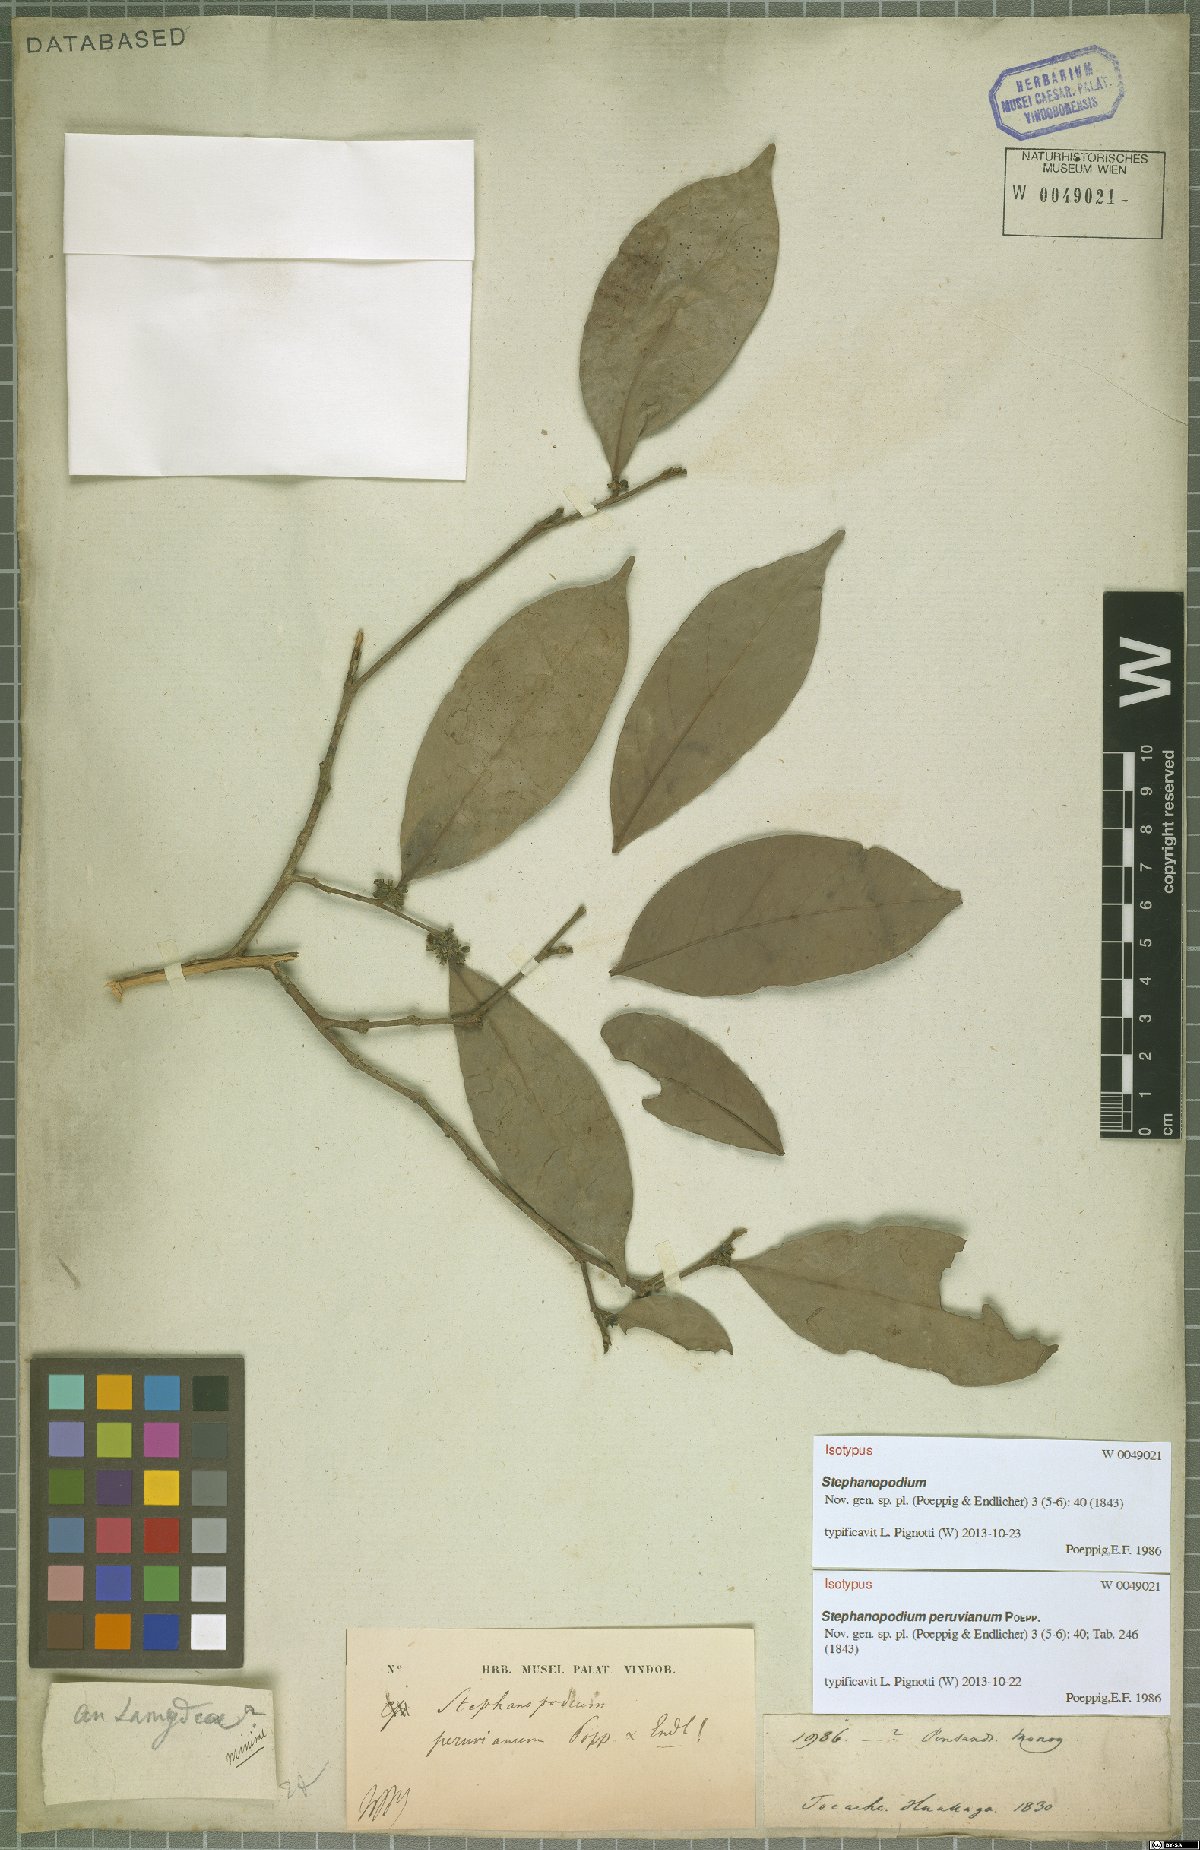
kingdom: Plantae
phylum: Tracheophyta
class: Magnoliopsida
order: Malpighiales
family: Dichapetalaceae
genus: Stephanopodium
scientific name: Stephanopodium peruvianum
